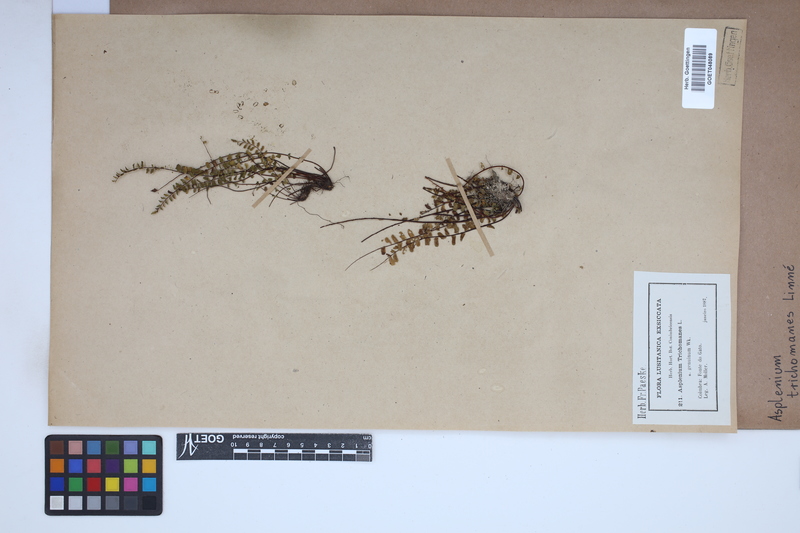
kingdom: Plantae
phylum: Tracheophyta
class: Polypodiopsida
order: Polypodiales
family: Aspleniaceae
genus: Asplenium
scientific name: Asplenium trichomanes
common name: Maidenhair spleenwort
